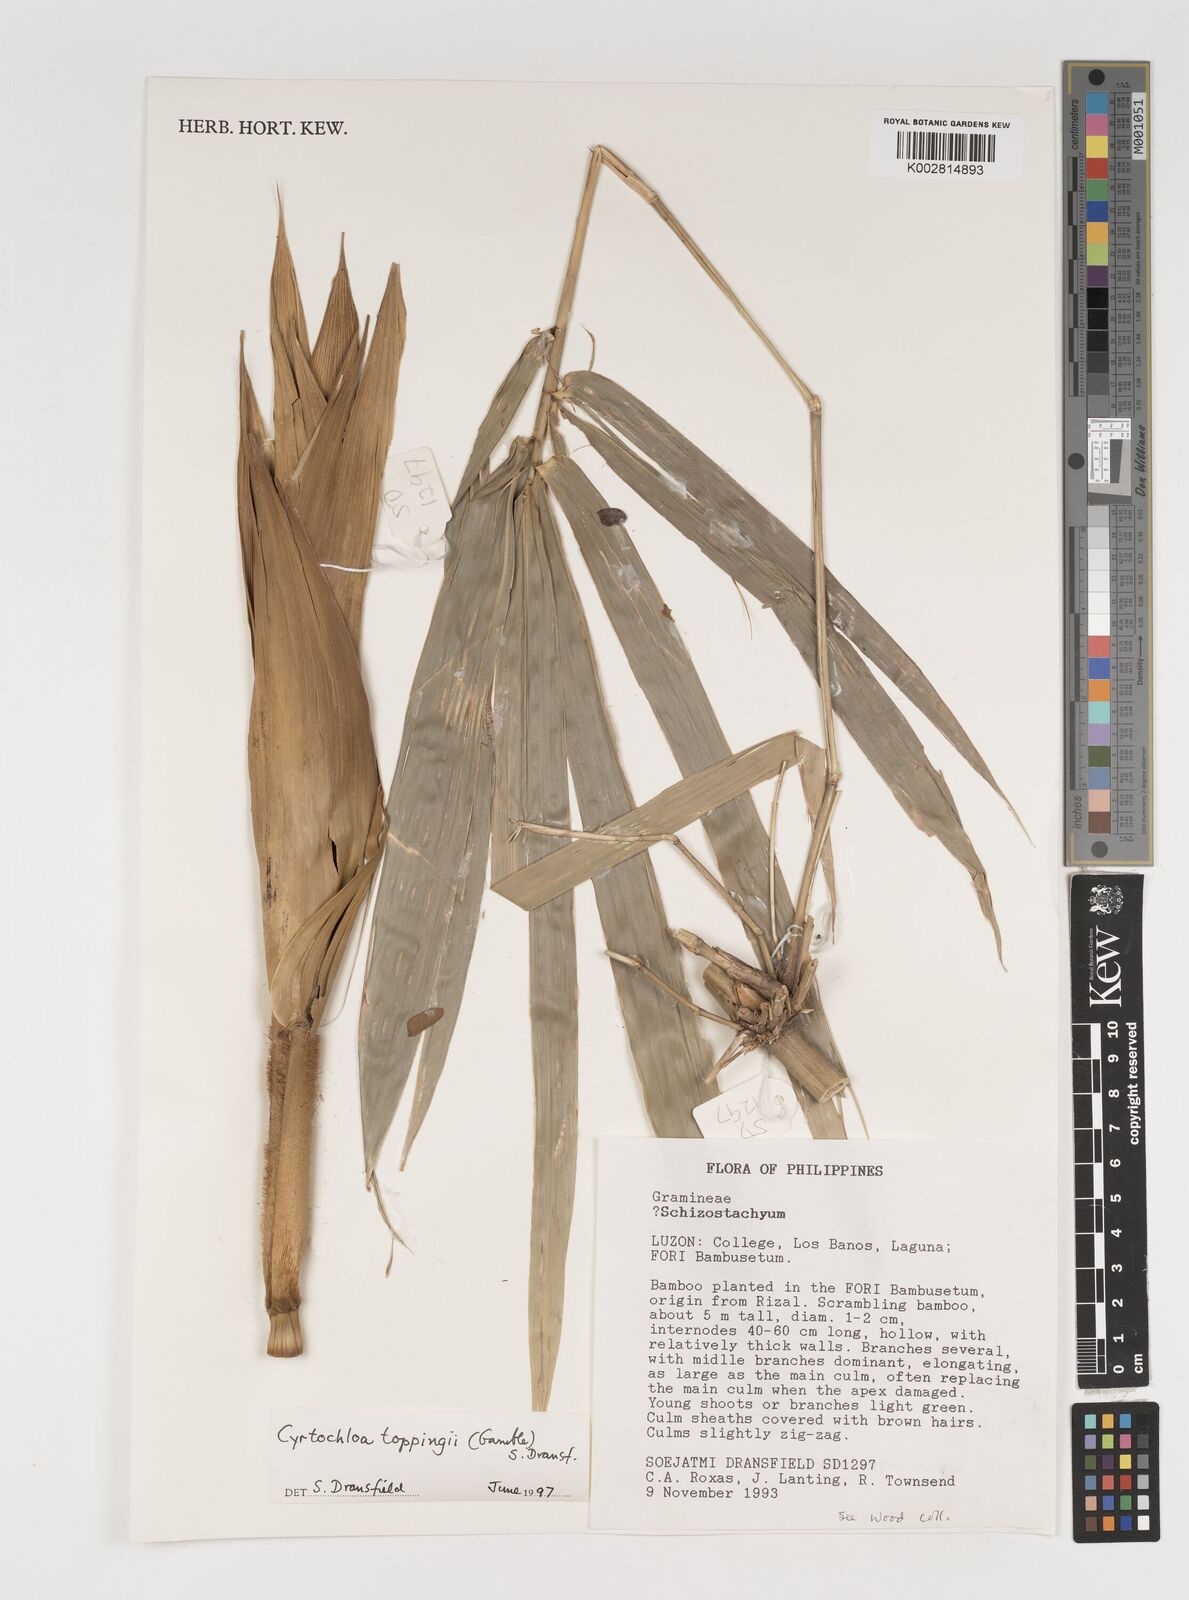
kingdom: Plantae
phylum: Tracheophyta
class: Liliopsida
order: Poales
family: Poaceae
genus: Cyrtochloa
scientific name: Cyrtochloa
